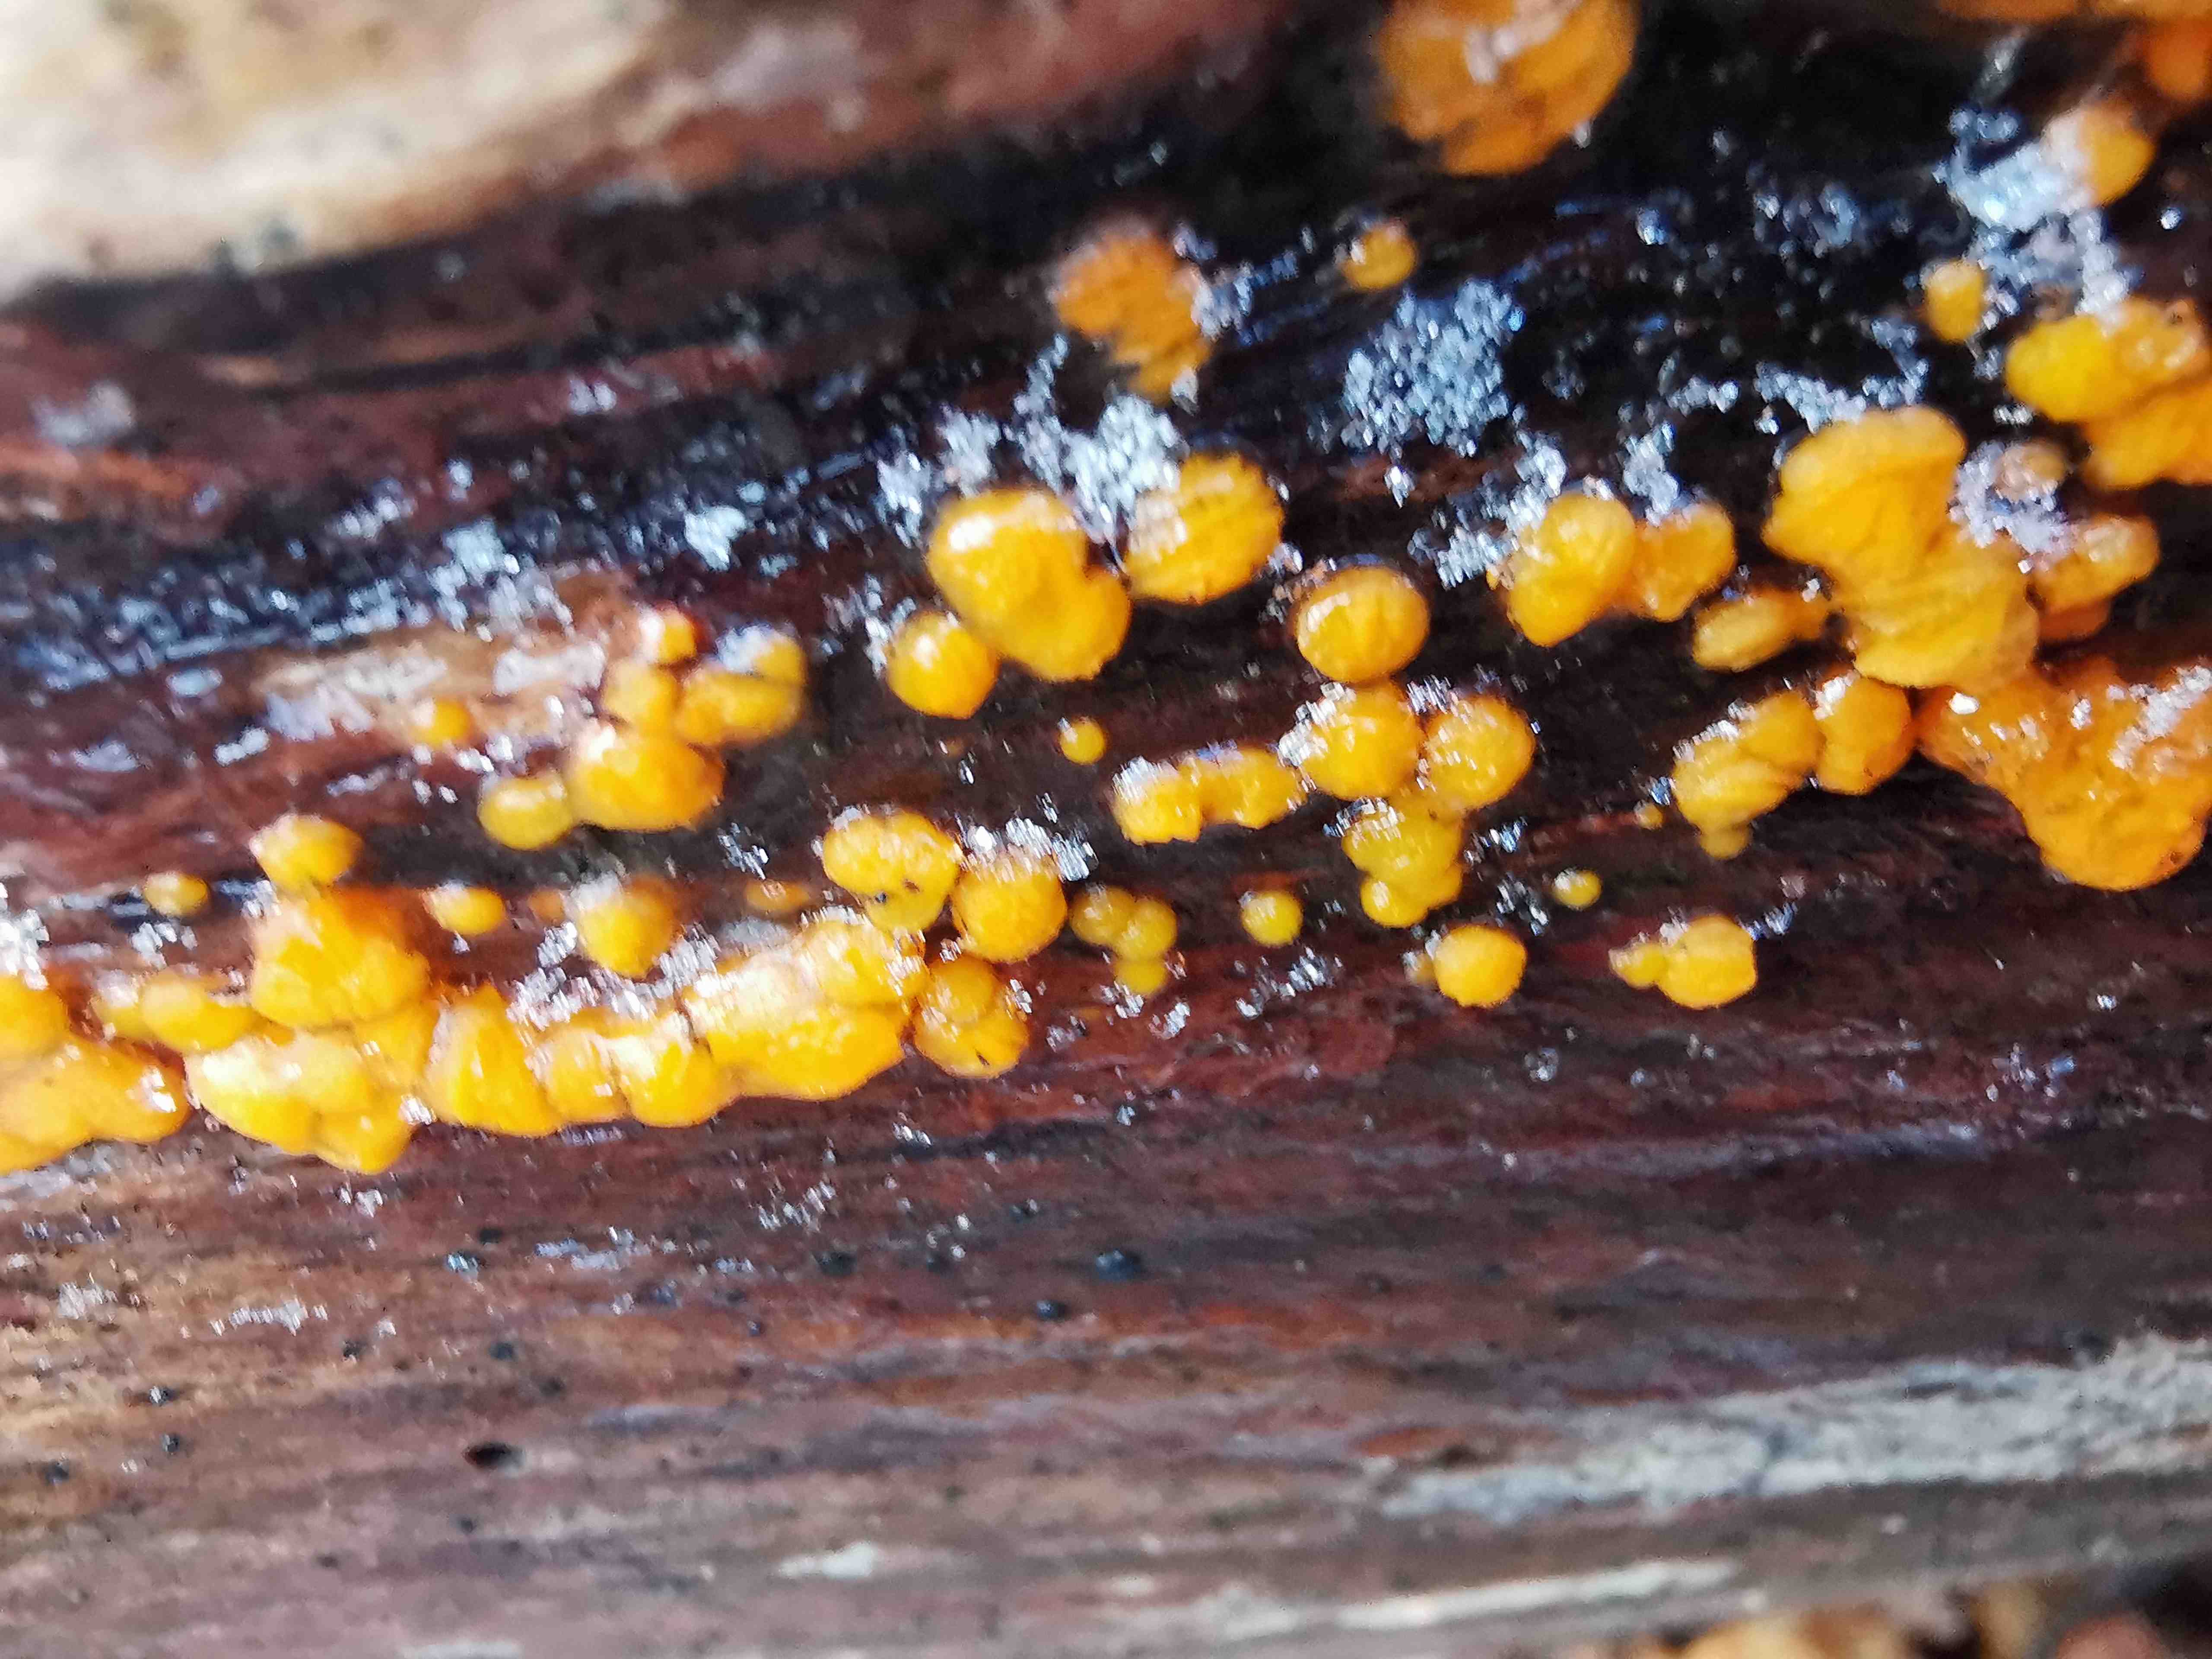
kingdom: Fungi
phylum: Basidiomycota
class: Dacrymycetes
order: Dacrymycetales
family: Dacrymycetaceae
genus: Dacrymyces
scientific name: Dacrymyces stillatus
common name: almindelig tåresvamp
